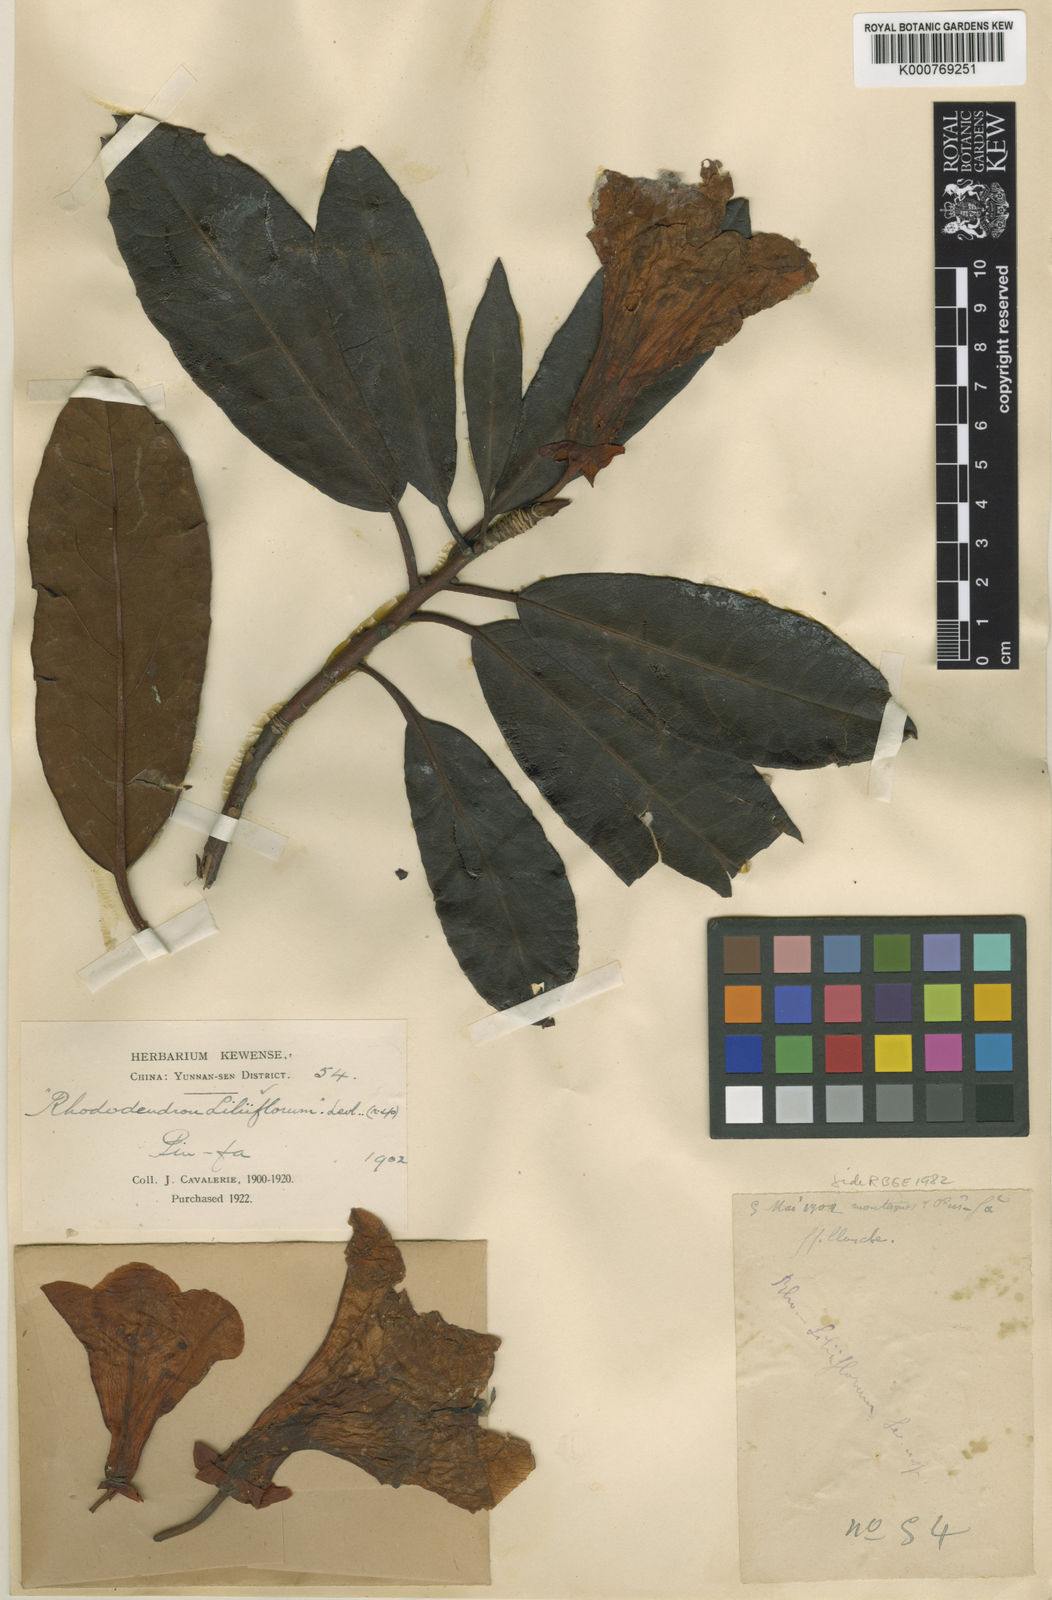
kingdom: Plantae
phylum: Tracheophyta
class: Magnoliopsida
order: Ericales
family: Ericaceae
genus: Rhododendron
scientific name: Rhododendron
